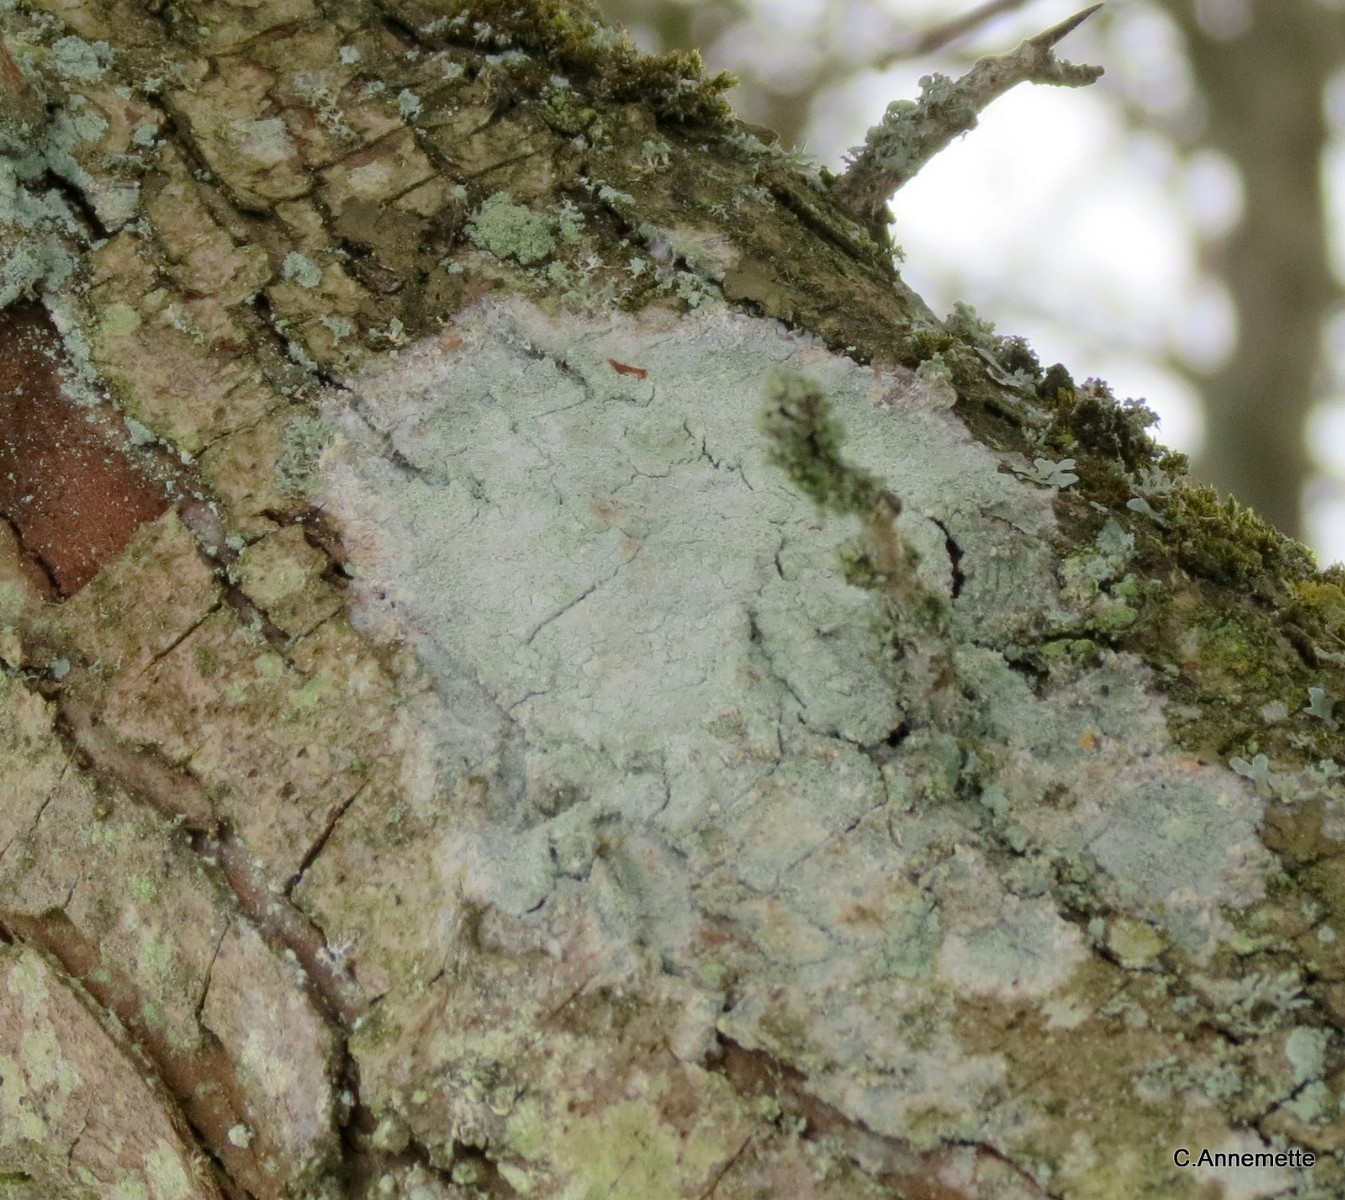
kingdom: Fungi
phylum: Ascomycota
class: Lecanoromycetes
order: Ostropales
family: Phlyctidaceae
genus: Phlyctis
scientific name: Phlyctis argena
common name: almindelig sølvlav
